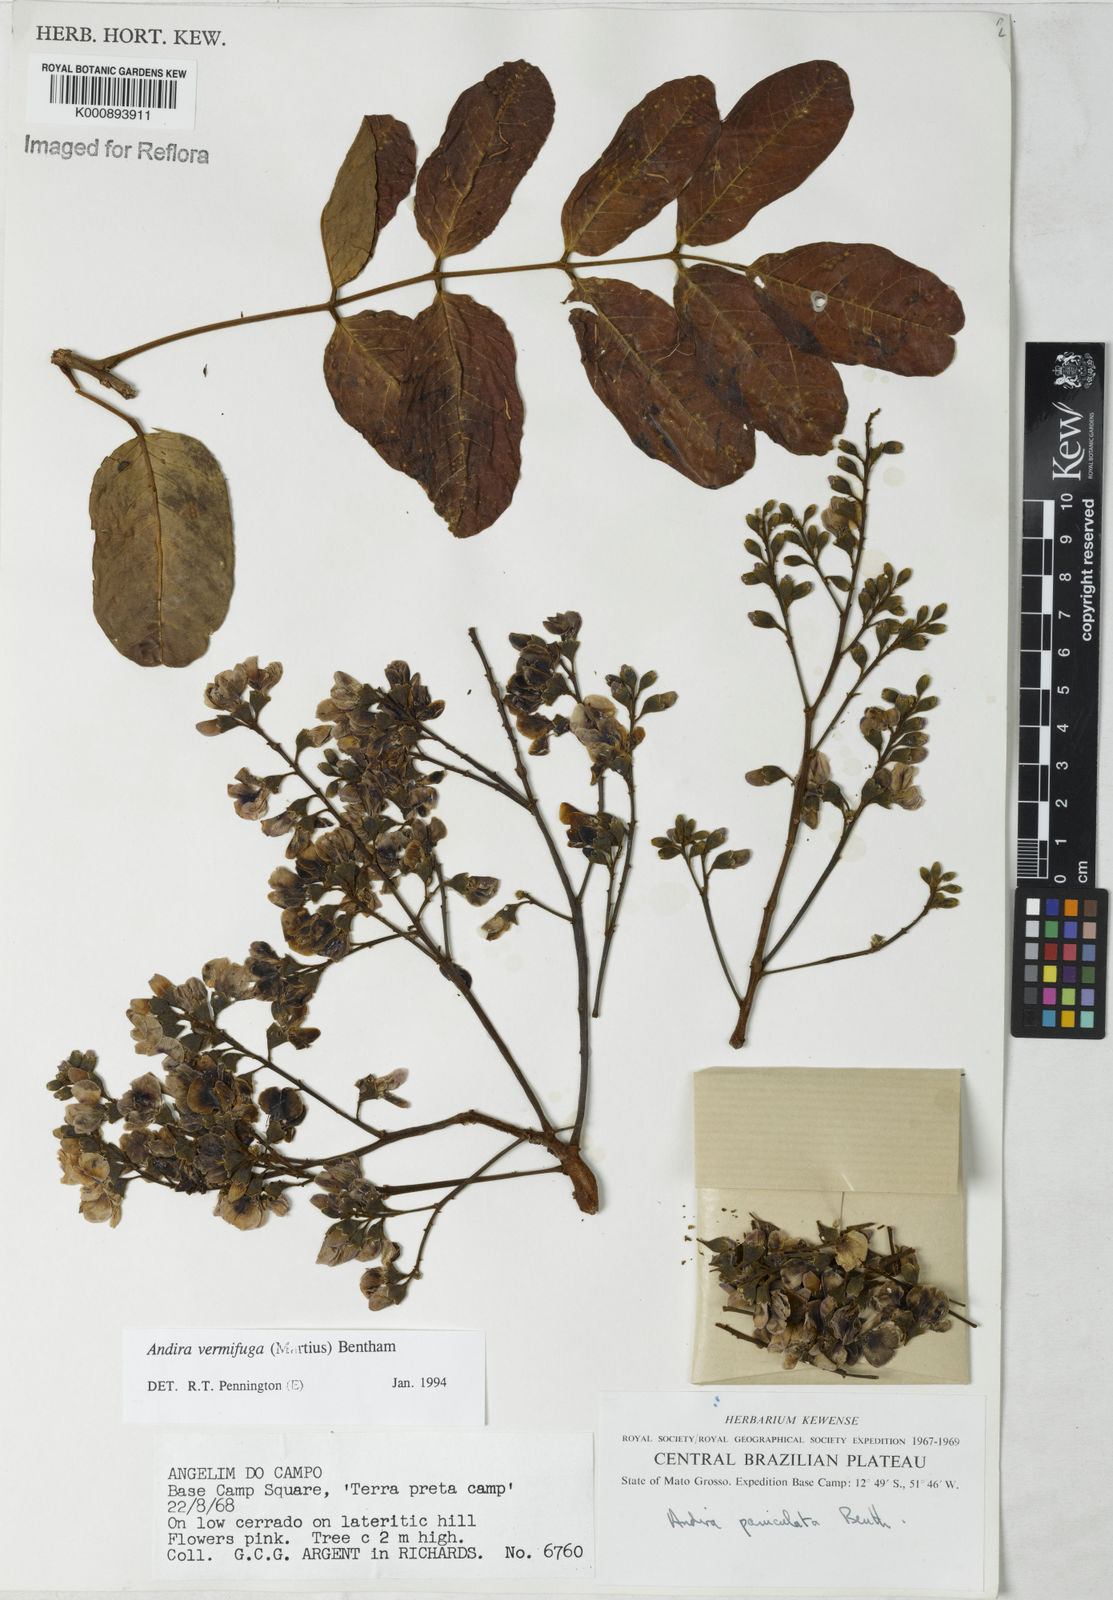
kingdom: Plantae
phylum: Tracheophyta
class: Magnoliopsida
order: Fabales
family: Fabaceae
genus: Andira
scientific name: Andira vermifuga
